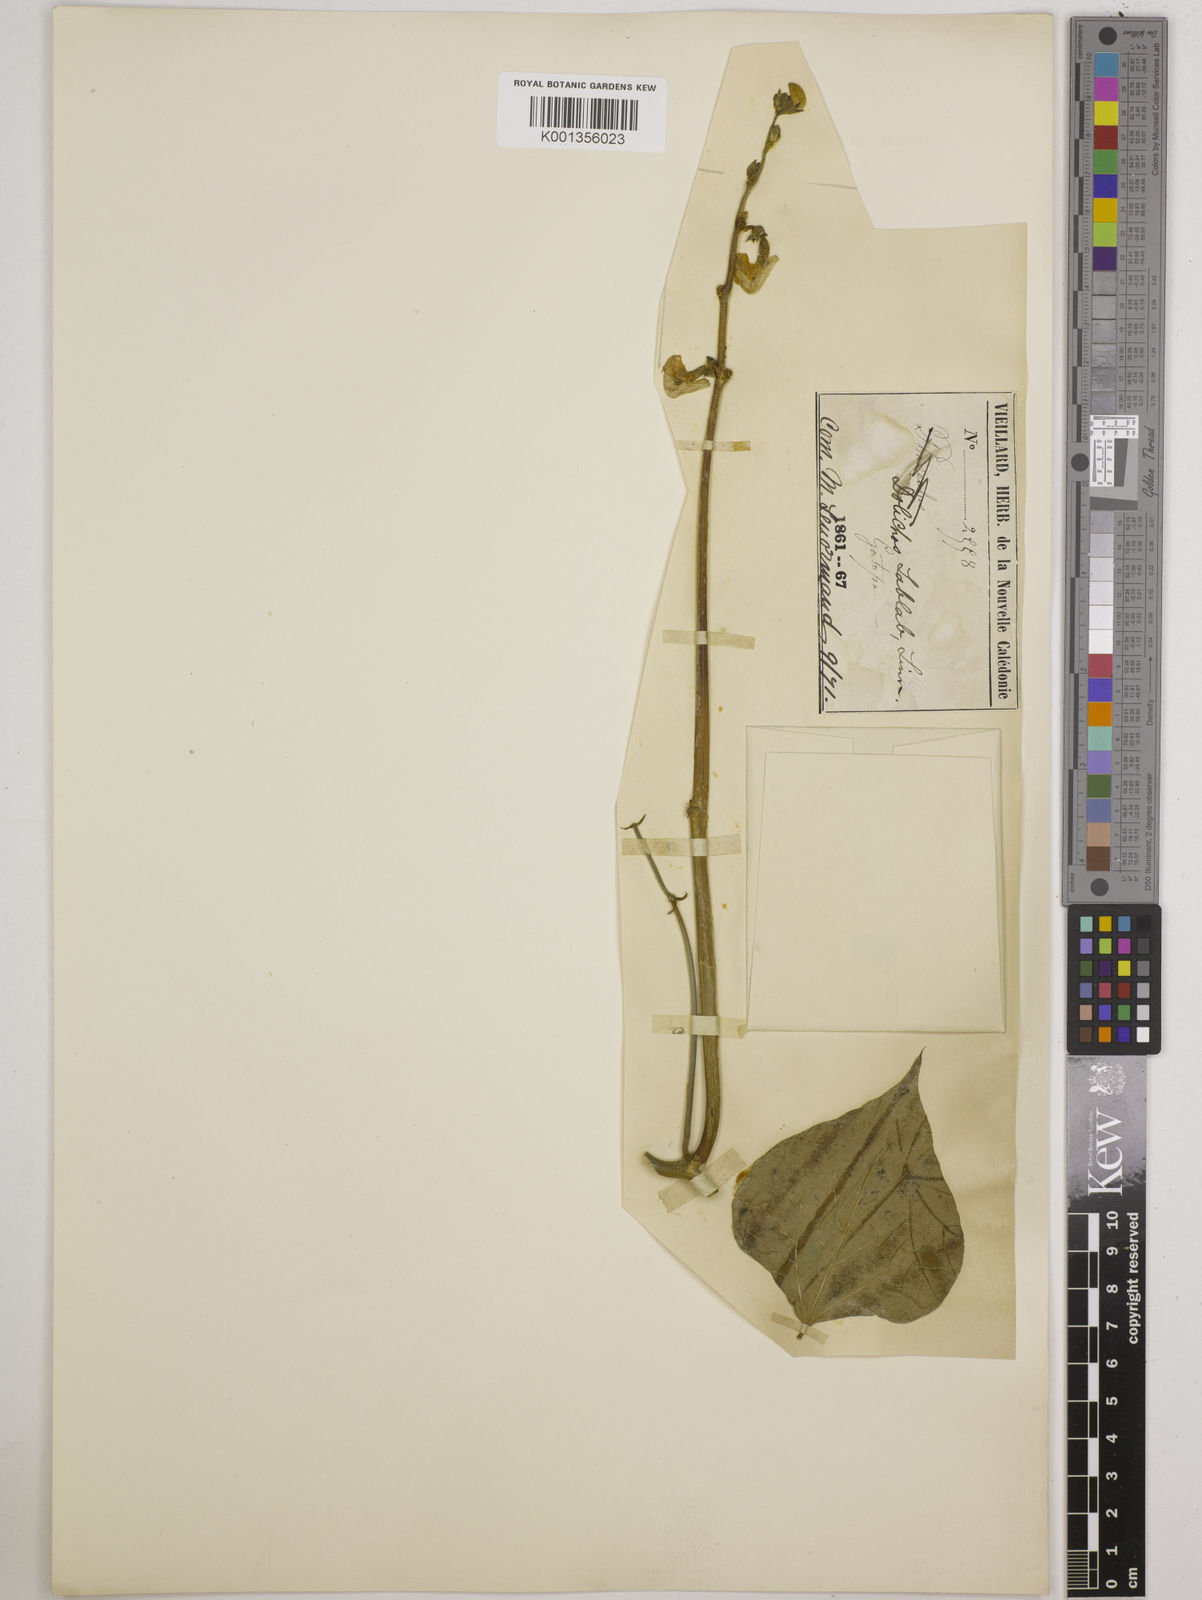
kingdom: Plantae
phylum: Tracheophyta
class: Magnoliopsida
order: Fabales
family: Fabaceae
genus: Lablab
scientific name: Lablab purpureus
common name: Lablab-bean
